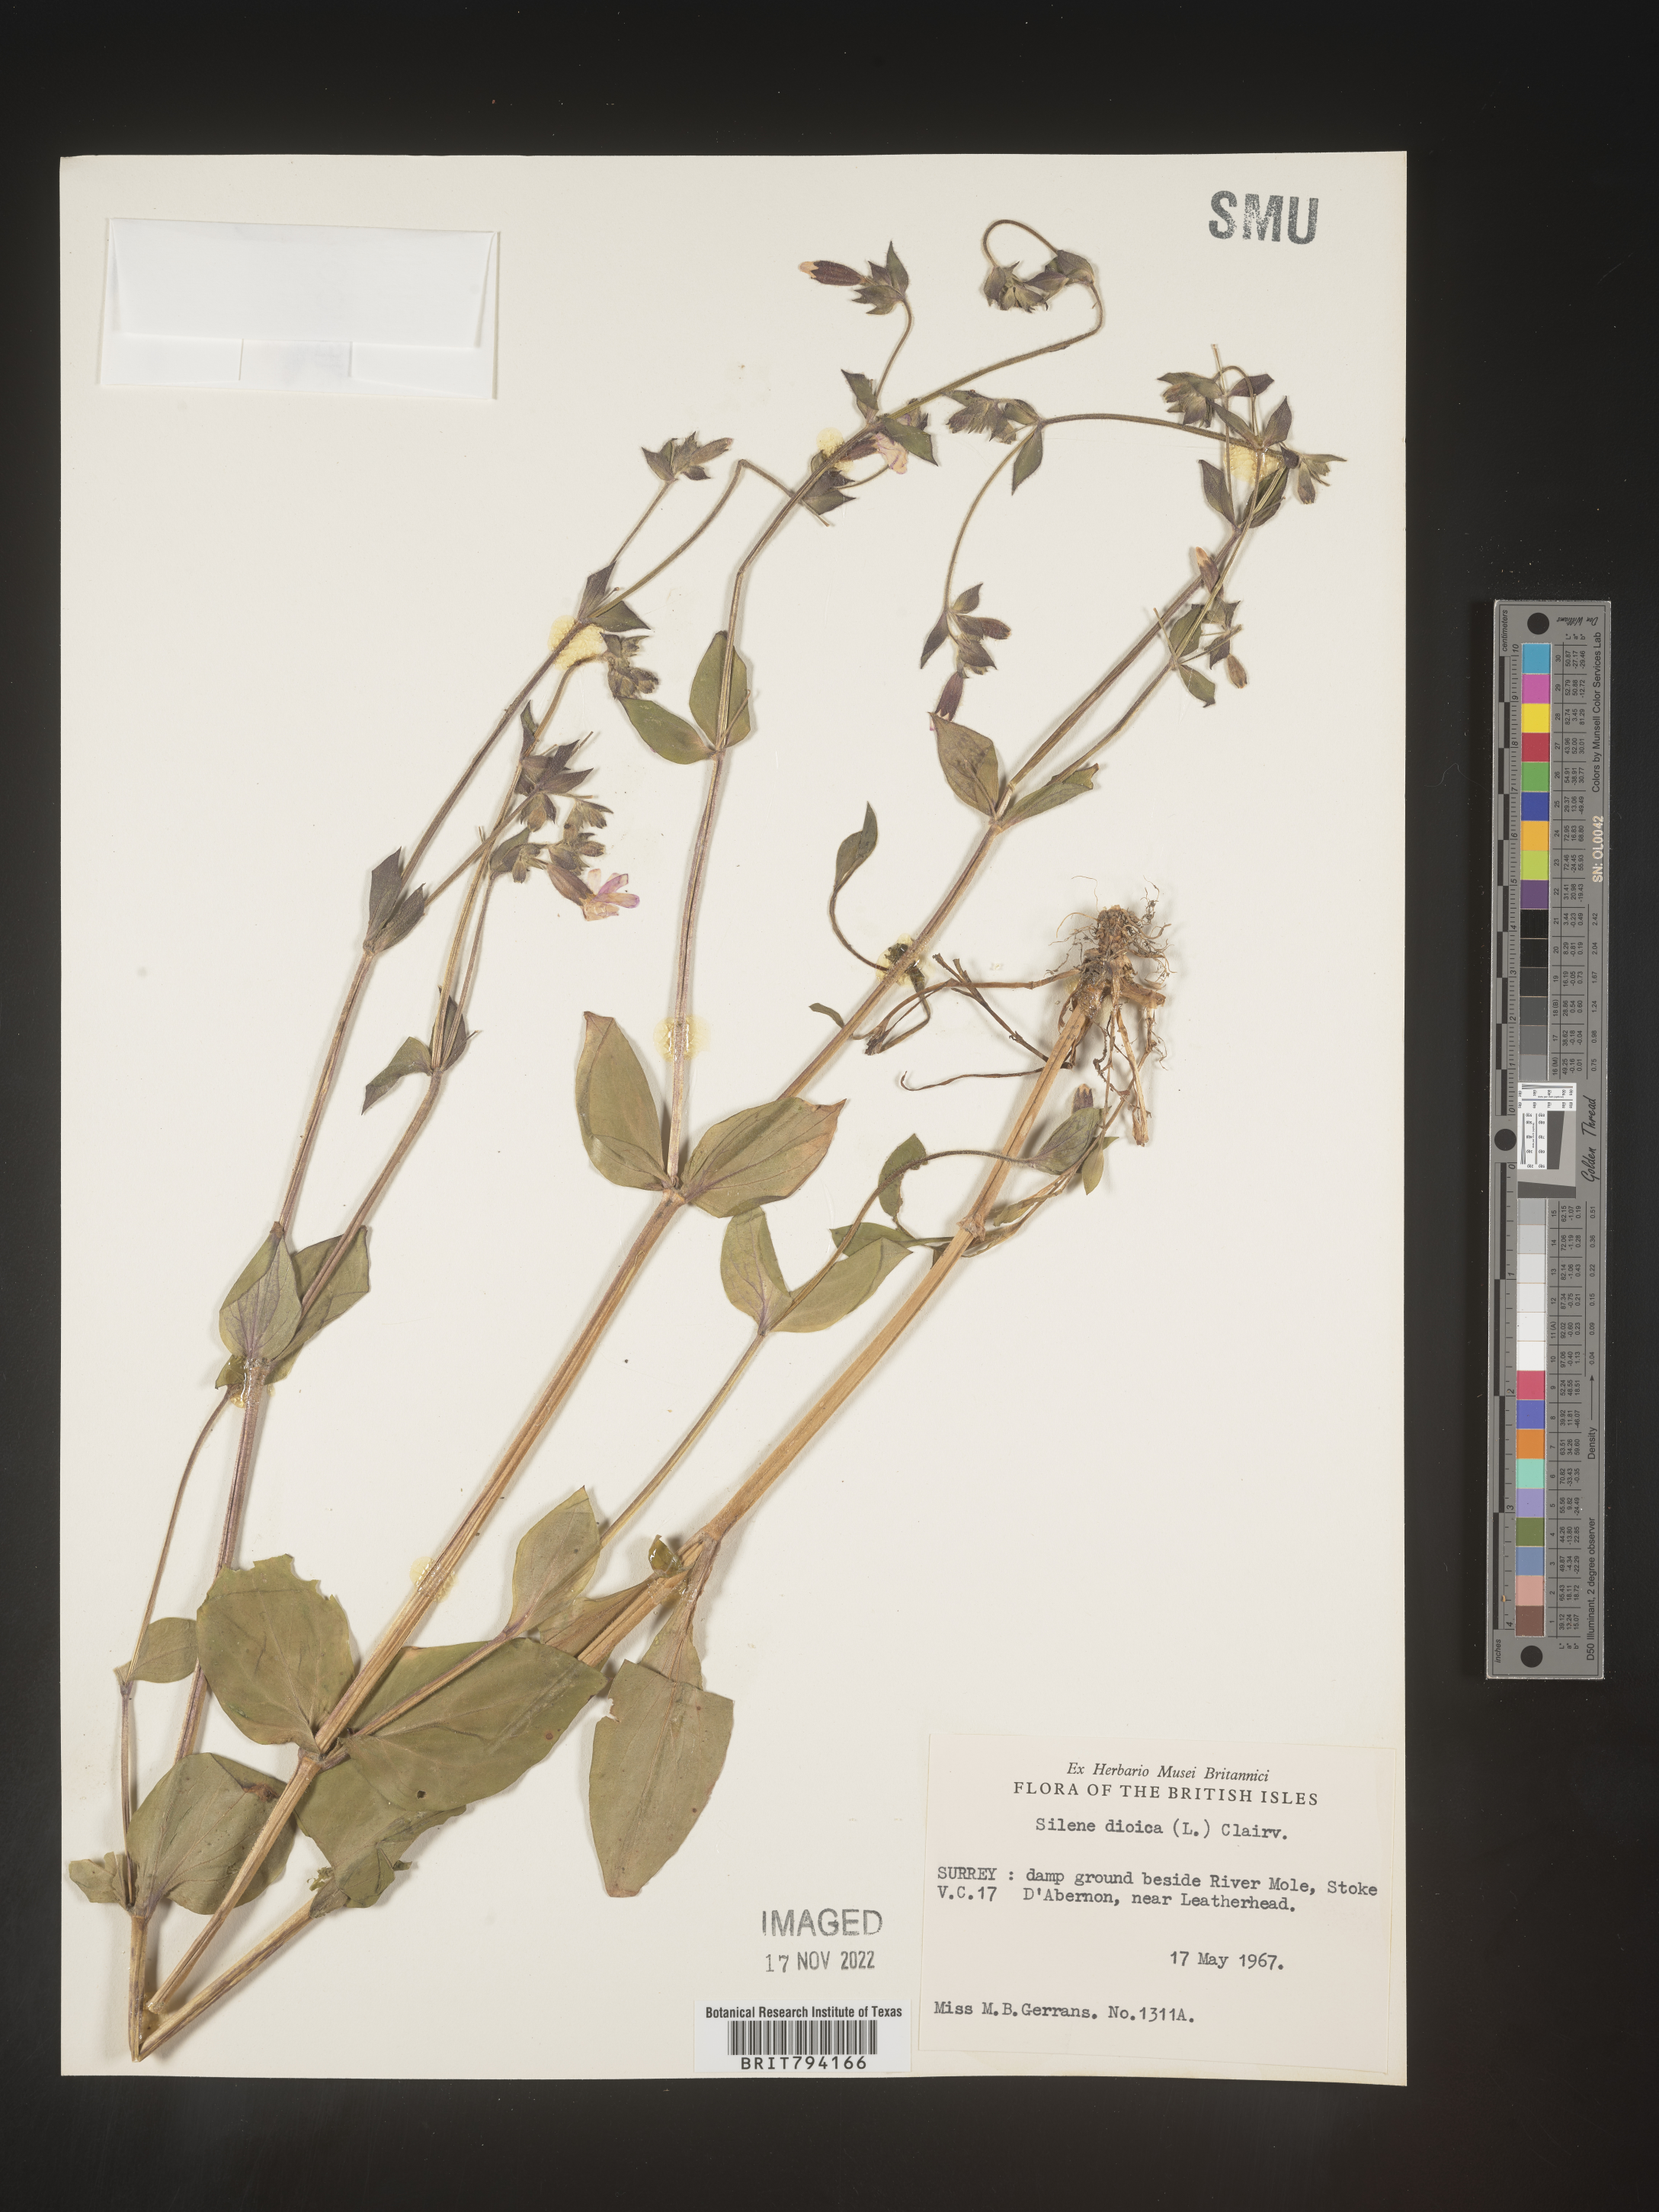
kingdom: Plantae
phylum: Tracheophyta
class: Magnoliopsida
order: Caryophyllales
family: Caryophyllaceae
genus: Silene
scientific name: Silene dioica
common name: Red campion
